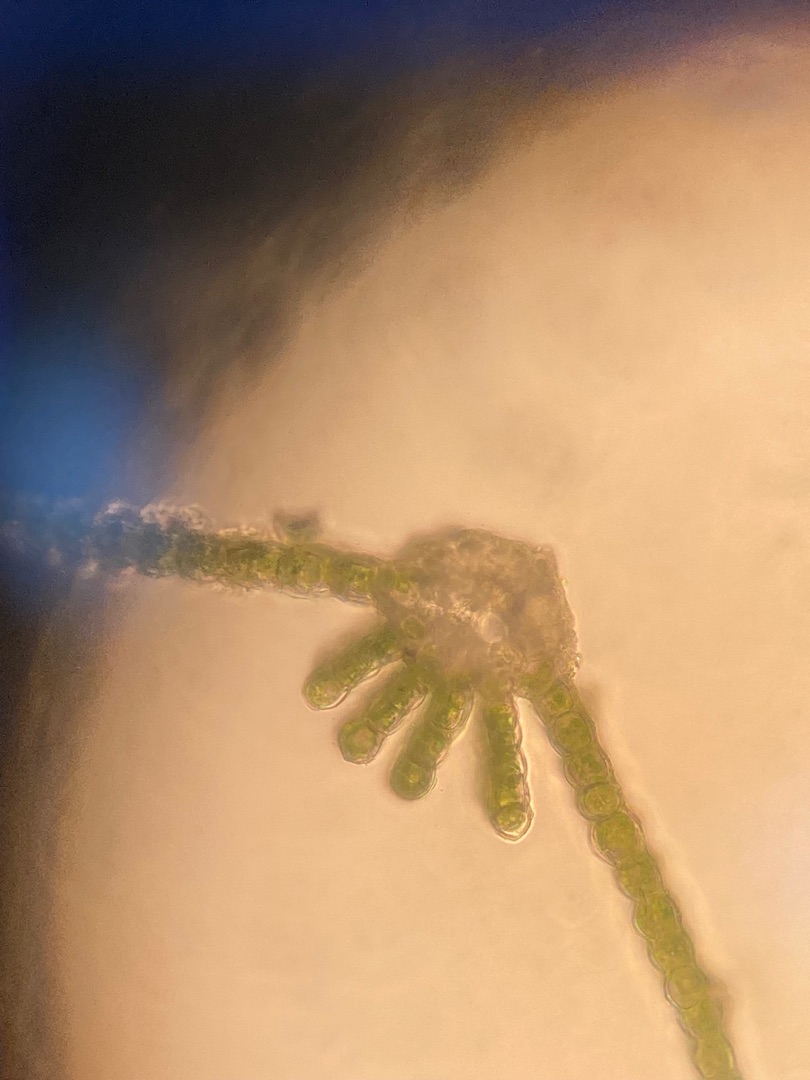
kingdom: Plantae
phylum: Bryophyta
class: Polytrichopsida
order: Polytrichales
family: Polytrichaceae
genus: Atrichum
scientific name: Atrichum undulatum
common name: Bølget katrinemos
